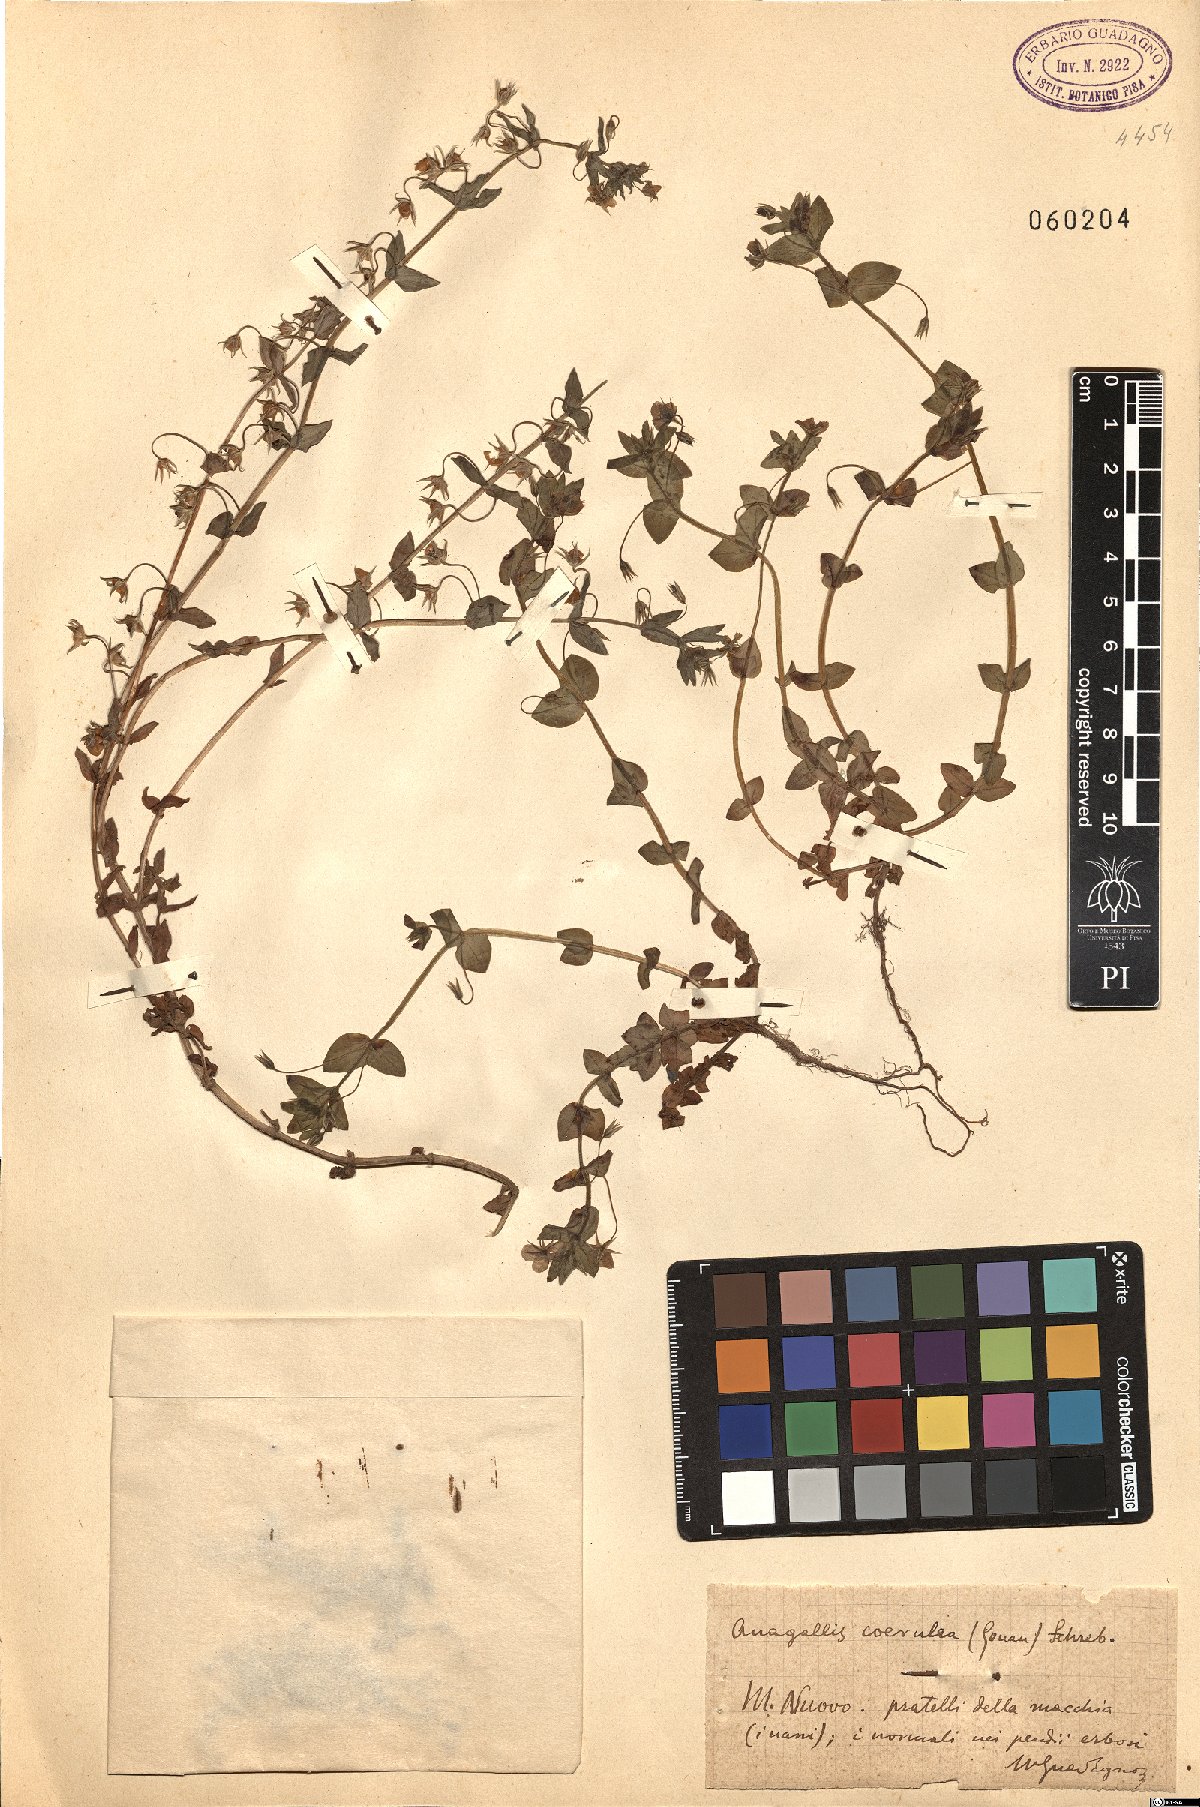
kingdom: Plantae
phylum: Tracheophyta
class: Magnoliopsida
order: Ericales
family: Primulaceae
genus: Lysimachia
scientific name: Lysimachia loeflingii
